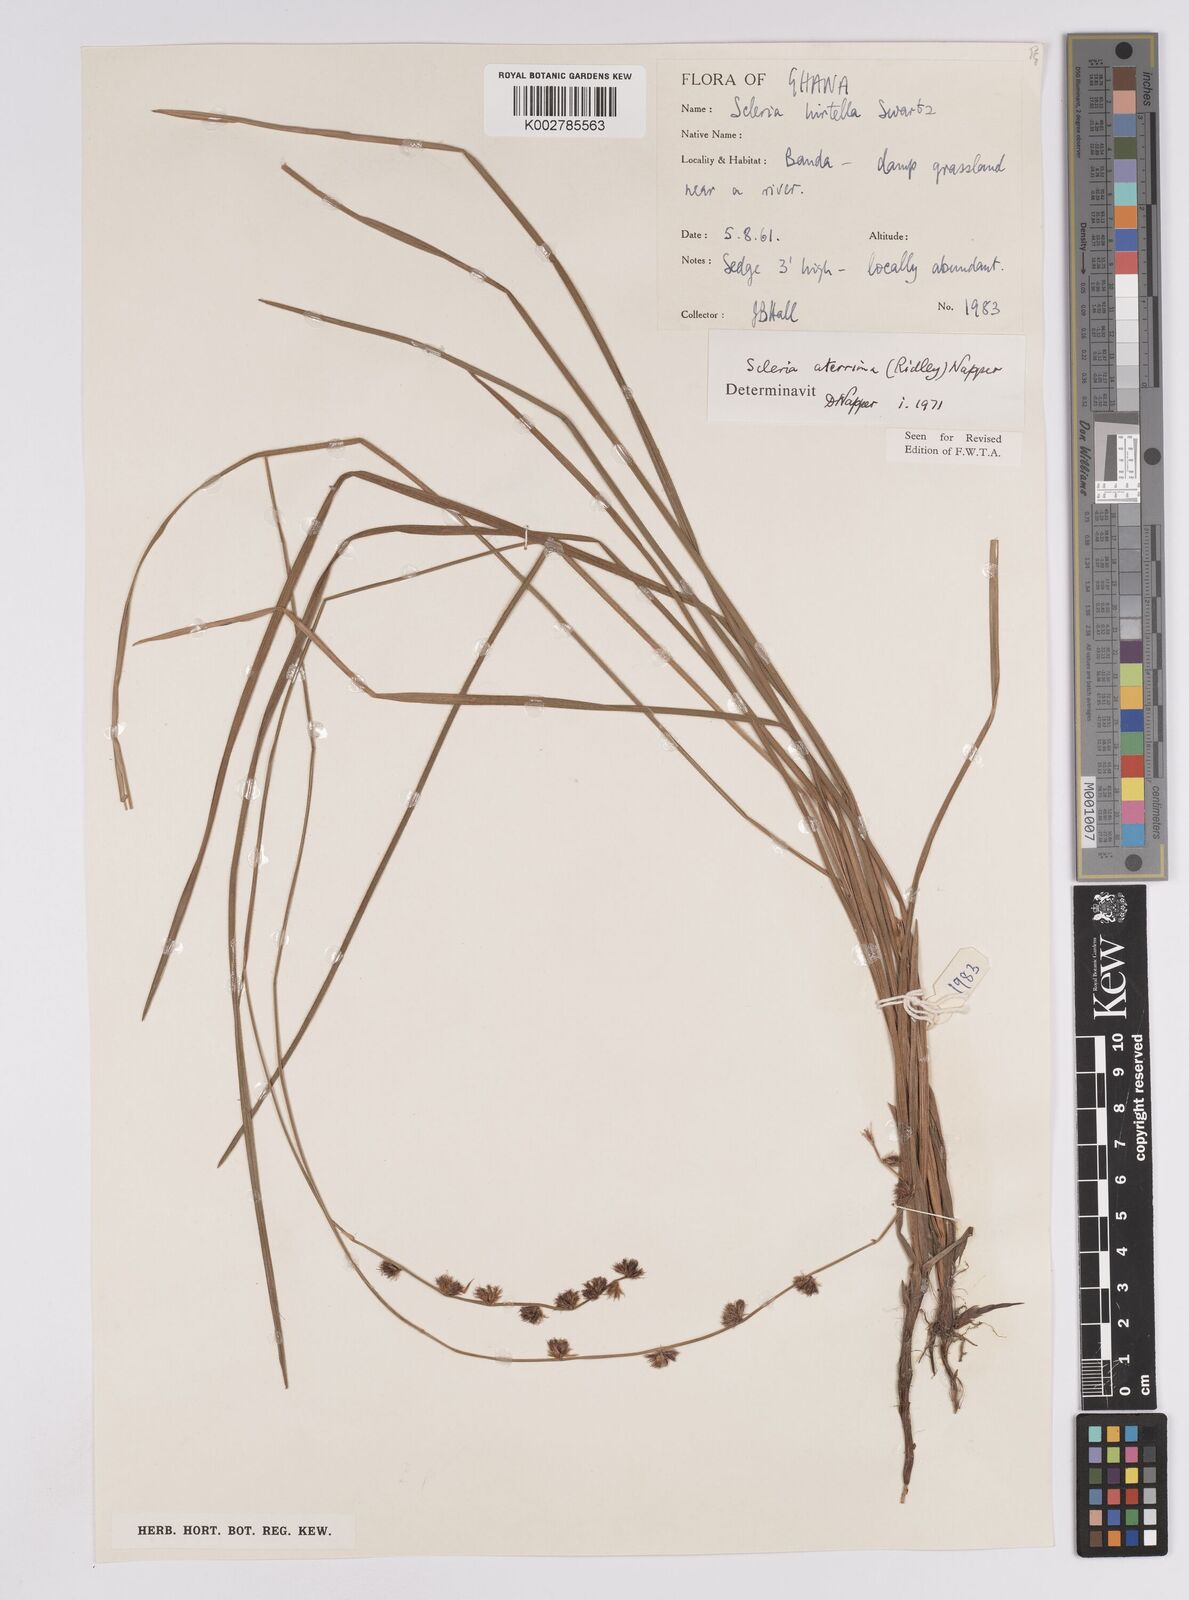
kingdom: Plantae
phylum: Tracheophyta
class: Liliopsida
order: Poales
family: Cyperaceae
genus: Scleria
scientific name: Scleria catophylla
